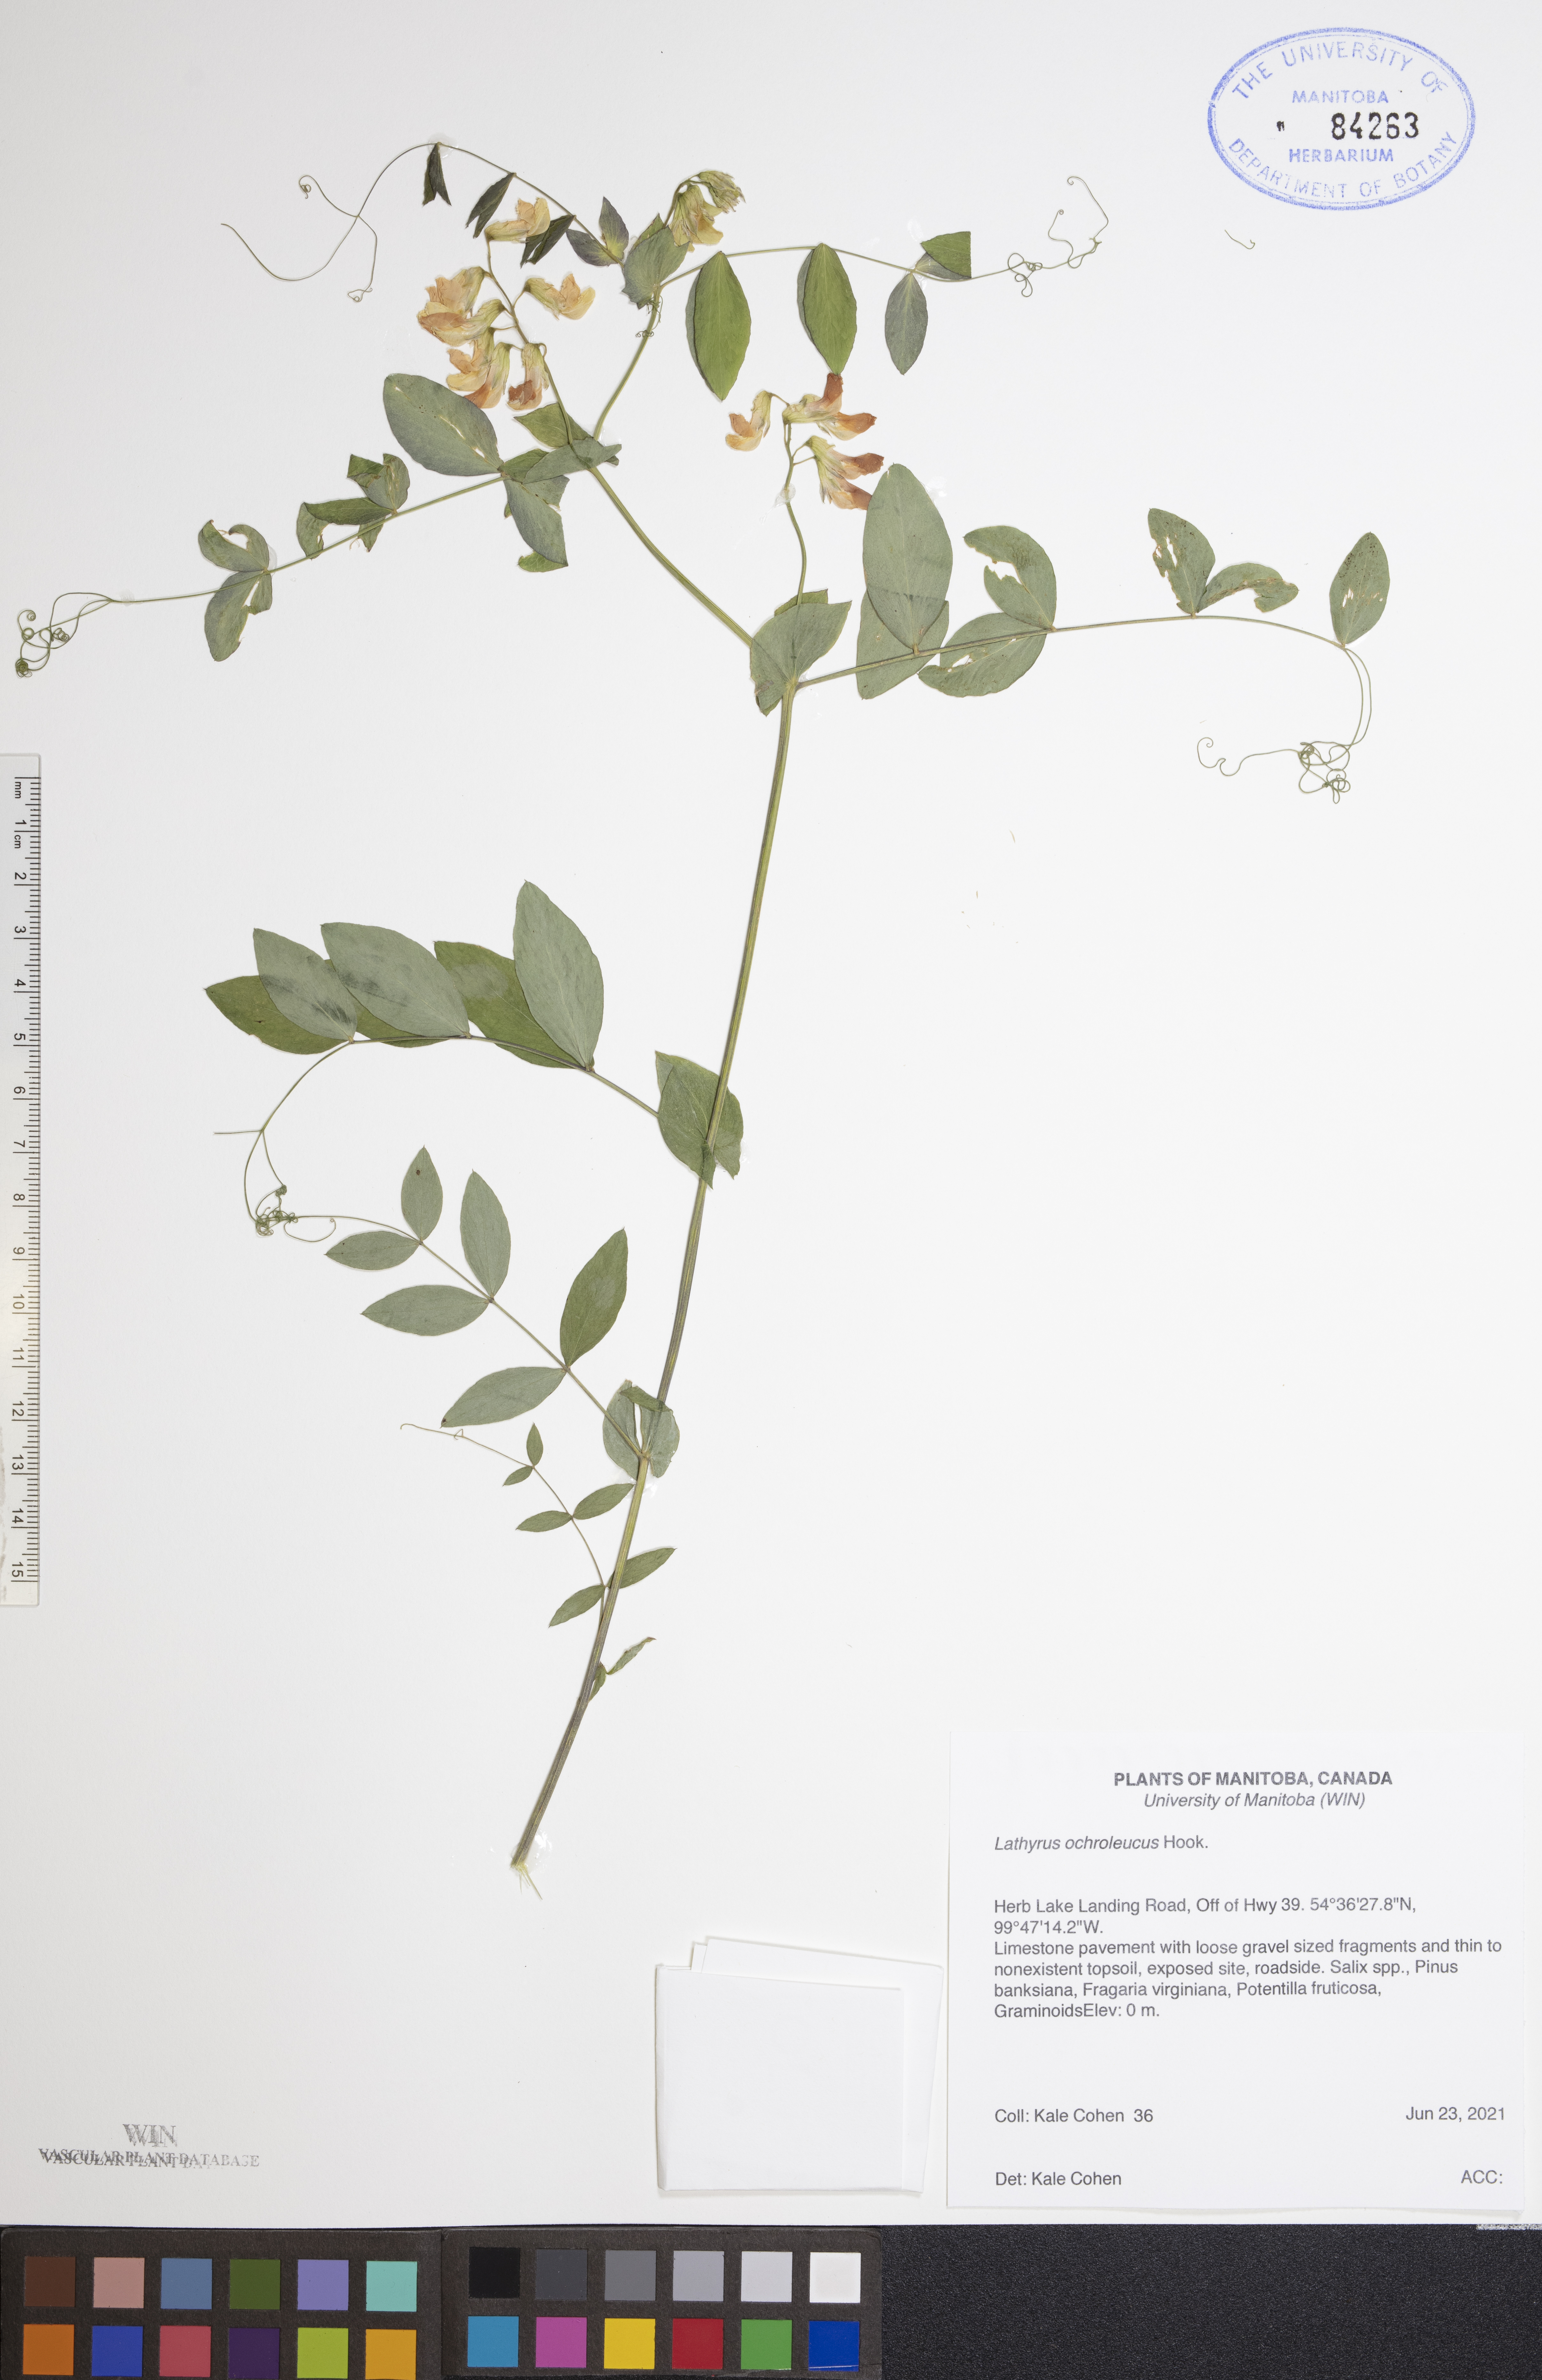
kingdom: Plantae
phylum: Tracheophyta
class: Magnoliopsida
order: Fabales
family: Fabaceae
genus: Lathyrus
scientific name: Lathyrus ochroleucus
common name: Pale vetchling
